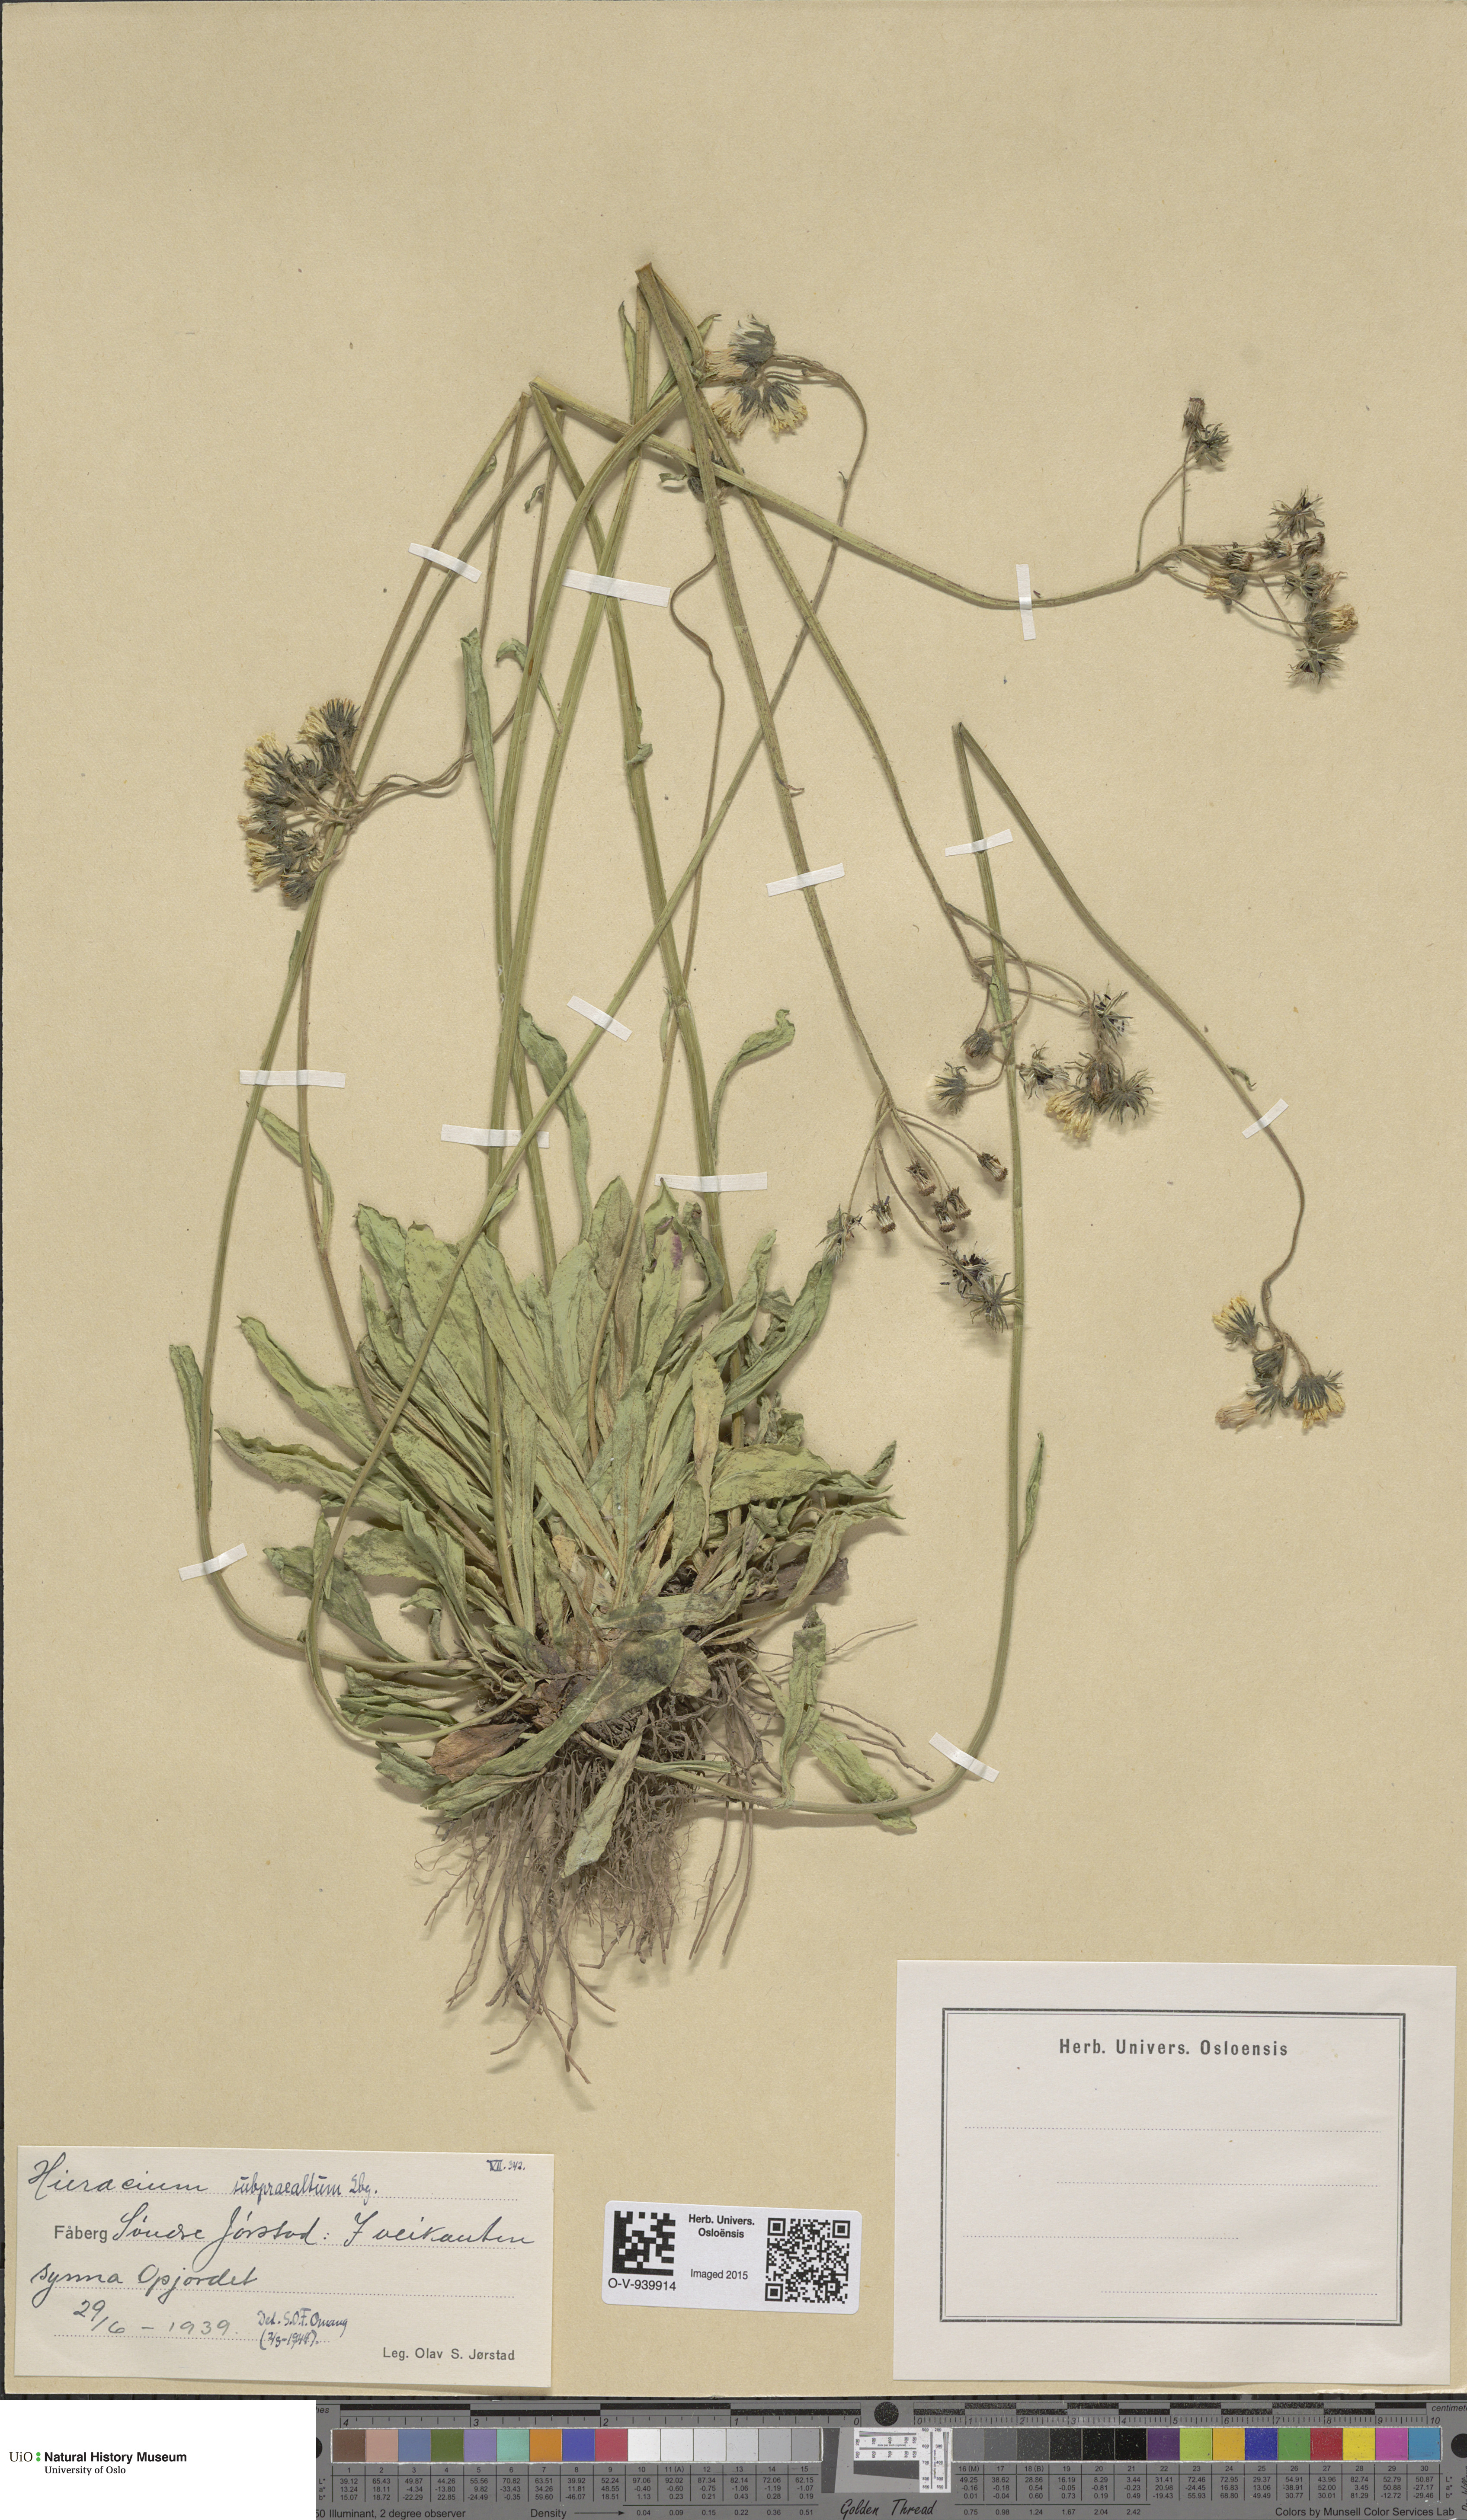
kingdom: Plantae
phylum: Tracheophyta
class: Magnoliopsida
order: Asterales
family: Asteraceae
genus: Pilosella
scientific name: Pilosella glomerata
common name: Queen devil hawkweed
